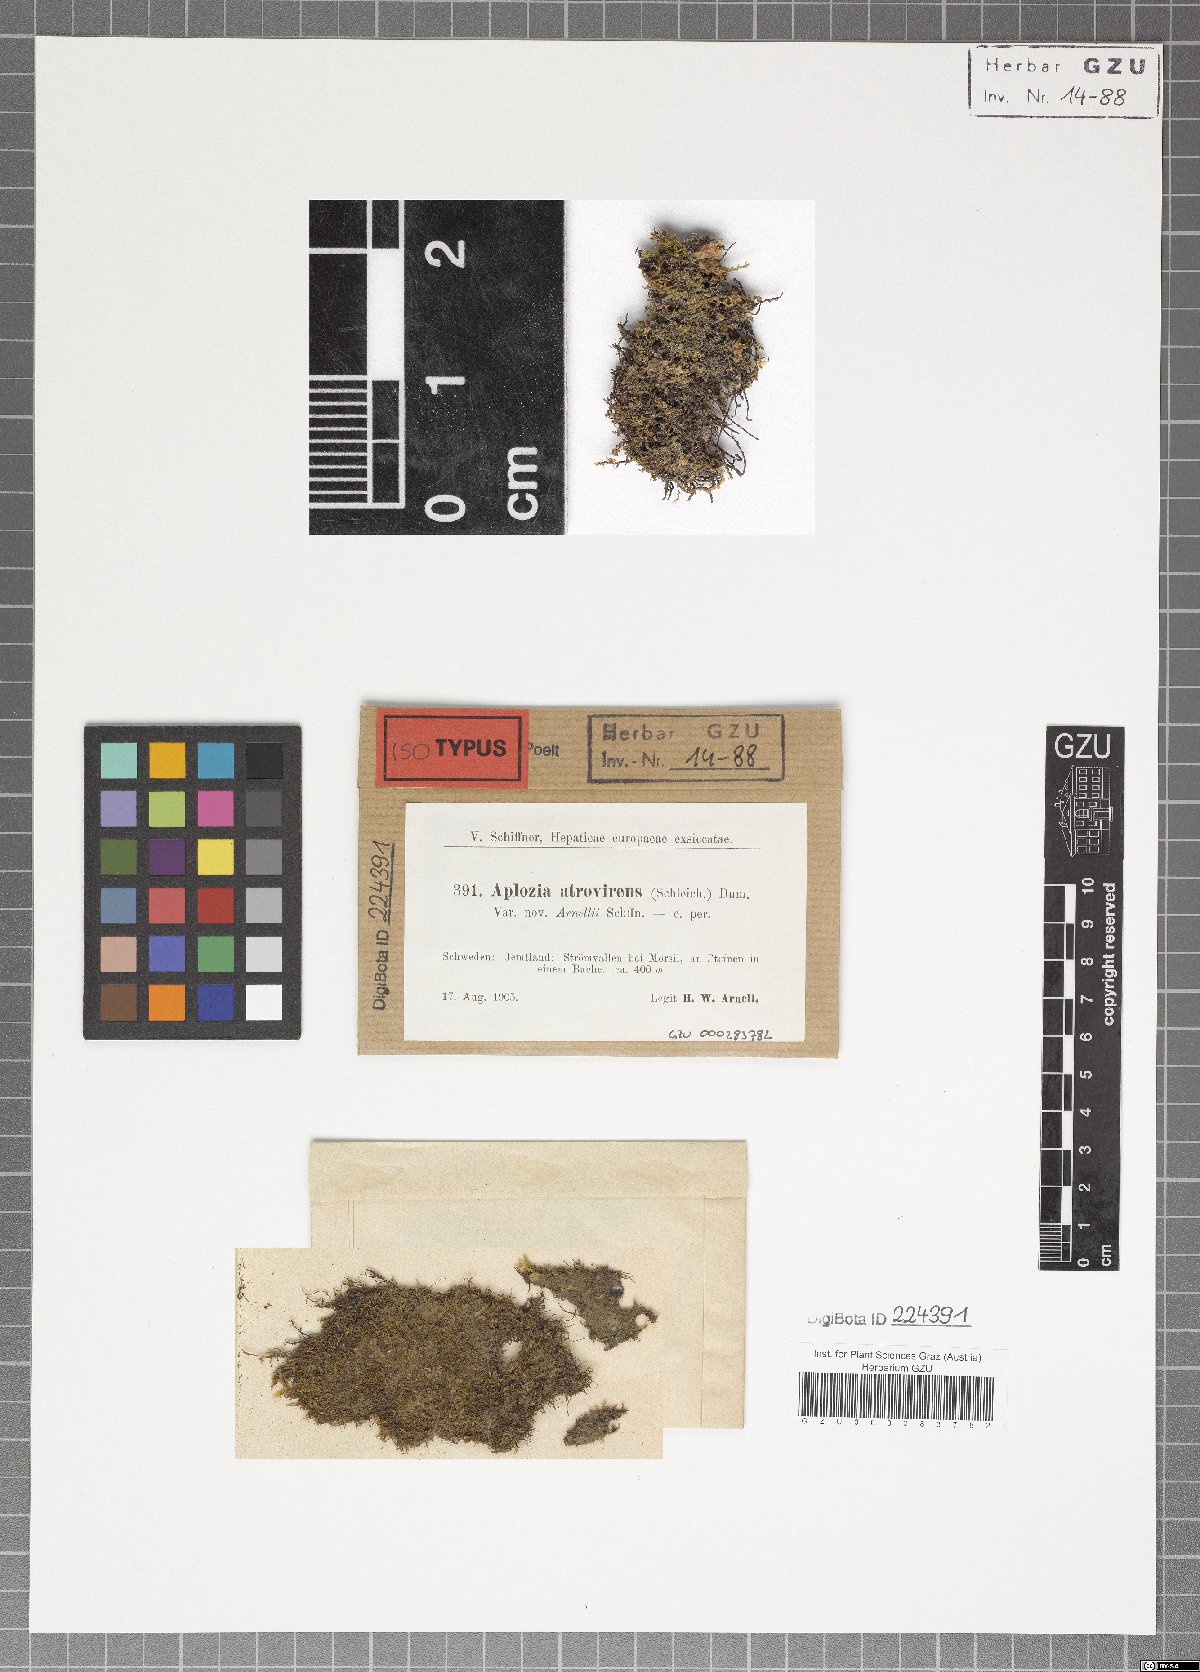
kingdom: Plantae
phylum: Marchantiophyta
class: Jungermanniopsida
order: Jungermanniales
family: Jungermanniaceae
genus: Jungermannia
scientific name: Jungermannia pumila
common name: Dwarf flapwort
